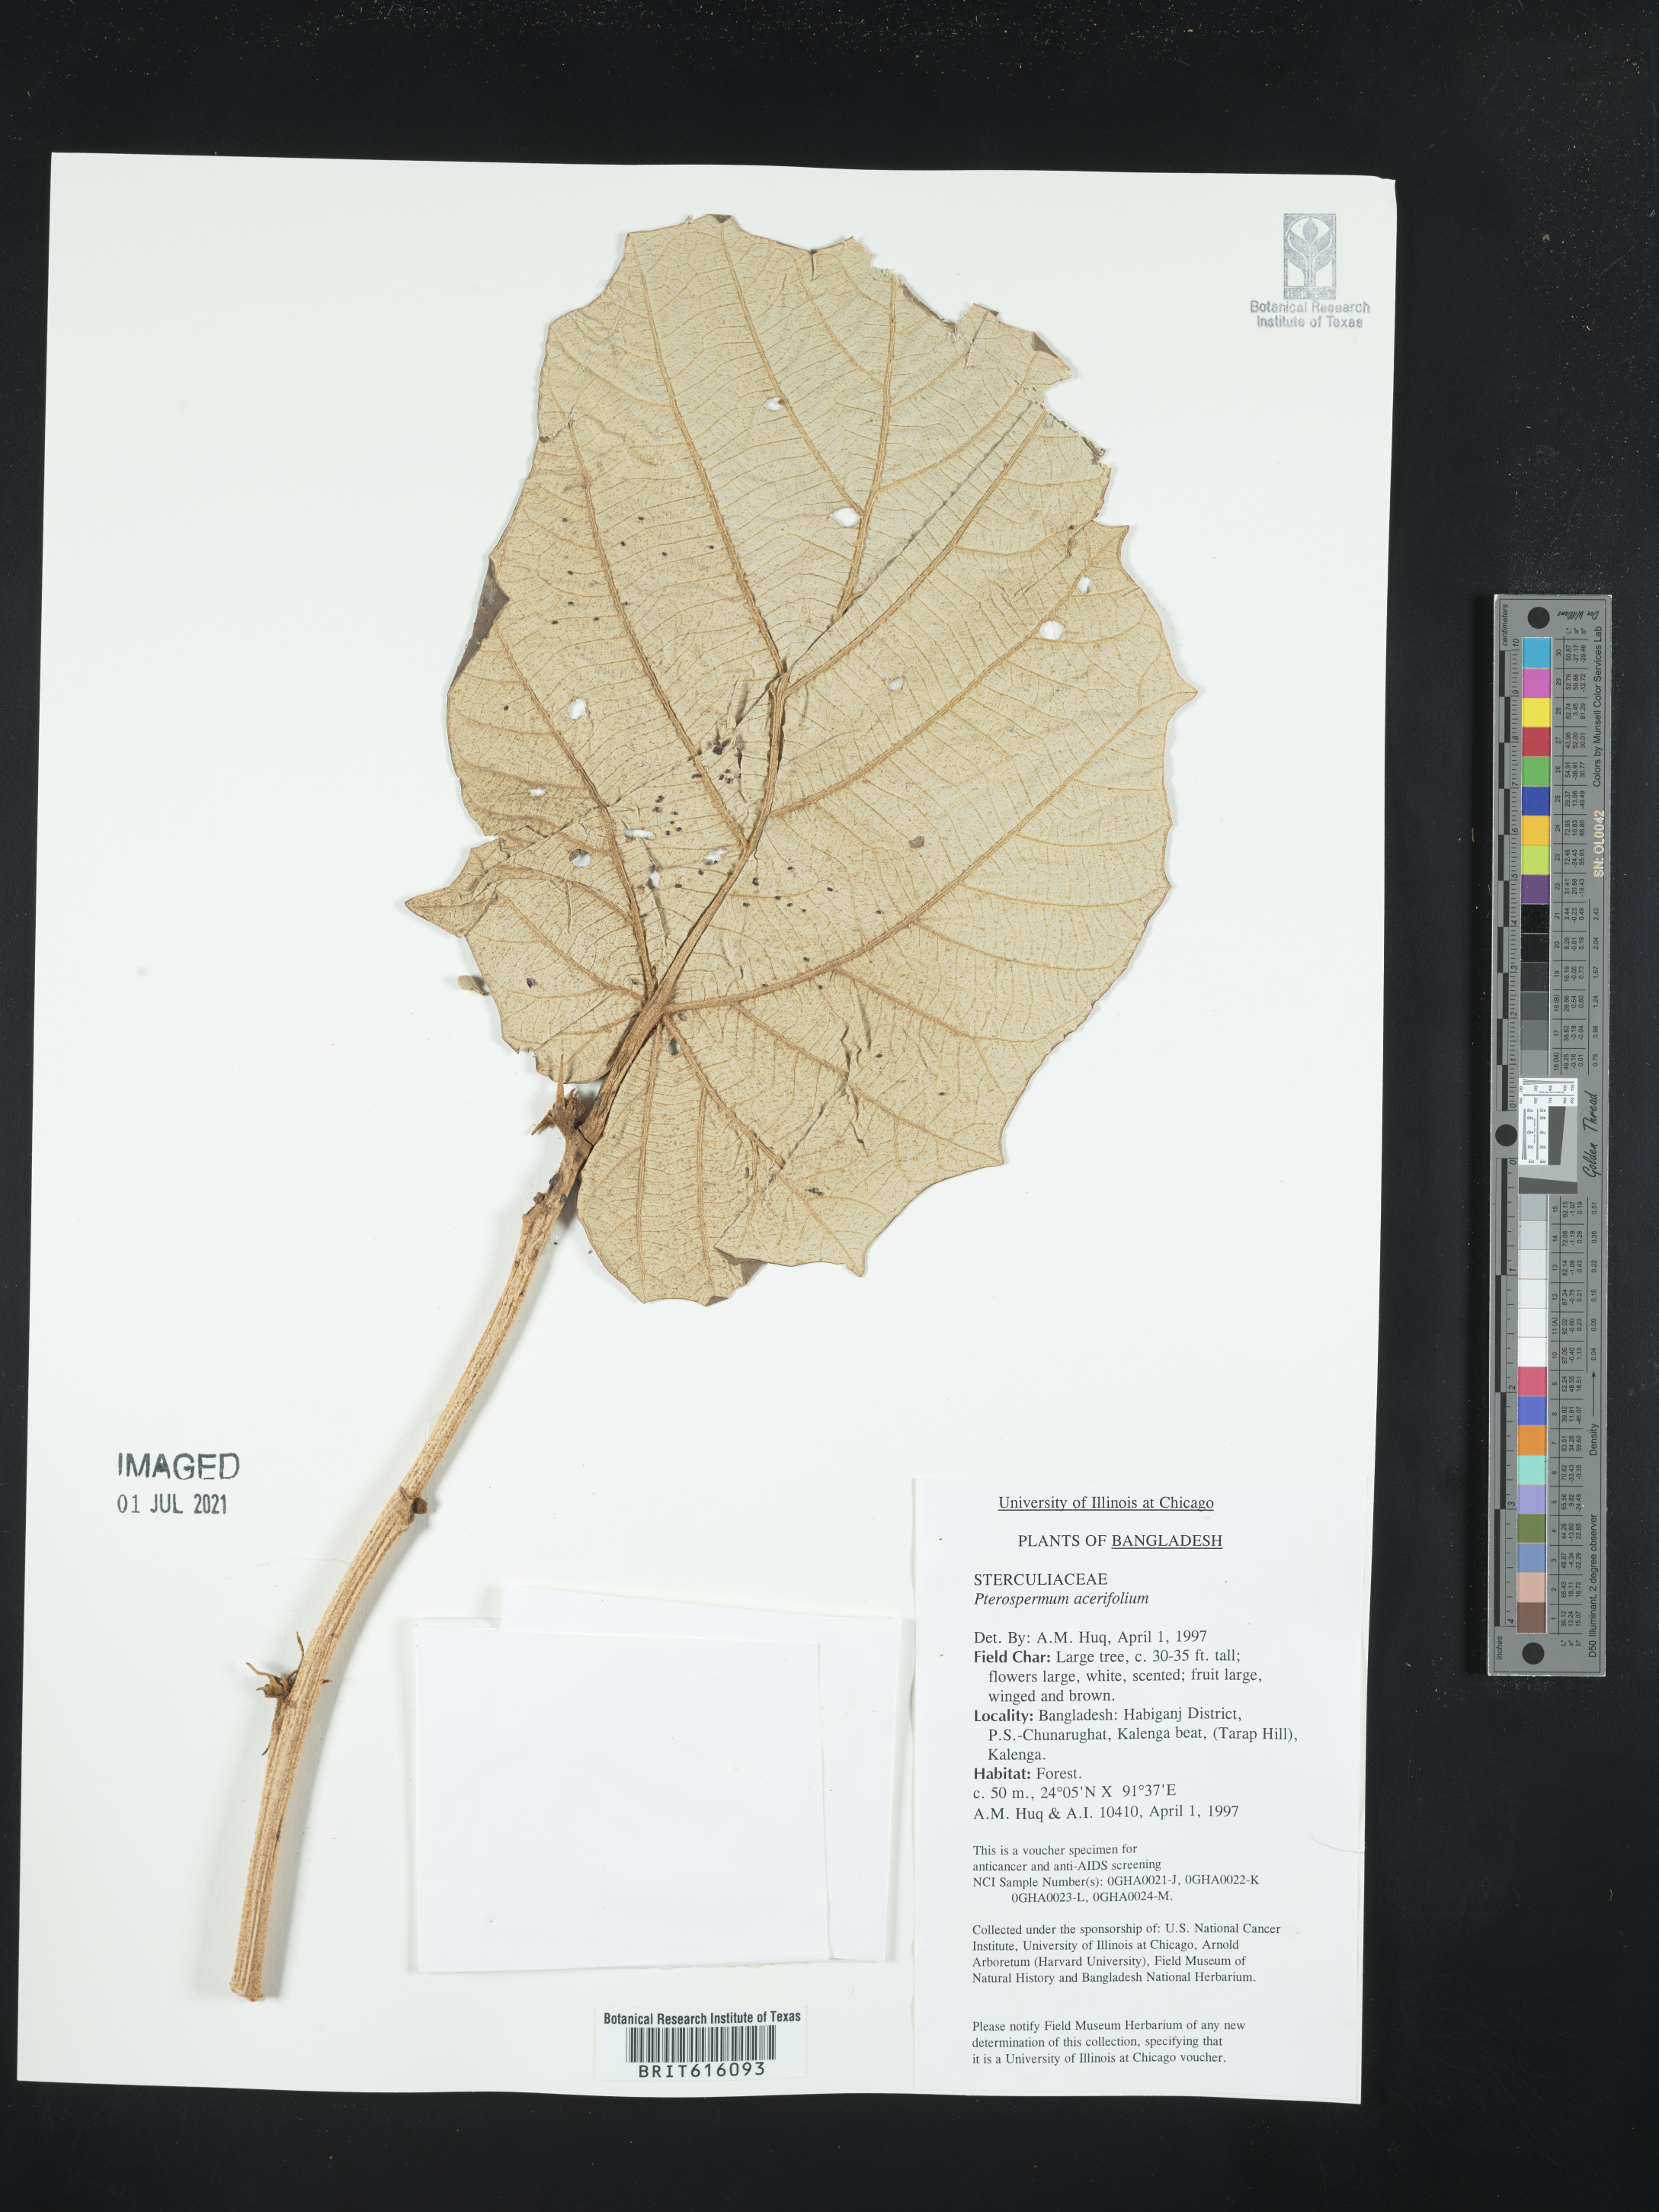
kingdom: Plantae
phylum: Tracheophyta
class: Magnoliopsida
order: Malvales
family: Malvaceae
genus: Pterospermum
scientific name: Pterospermum acerifolium
